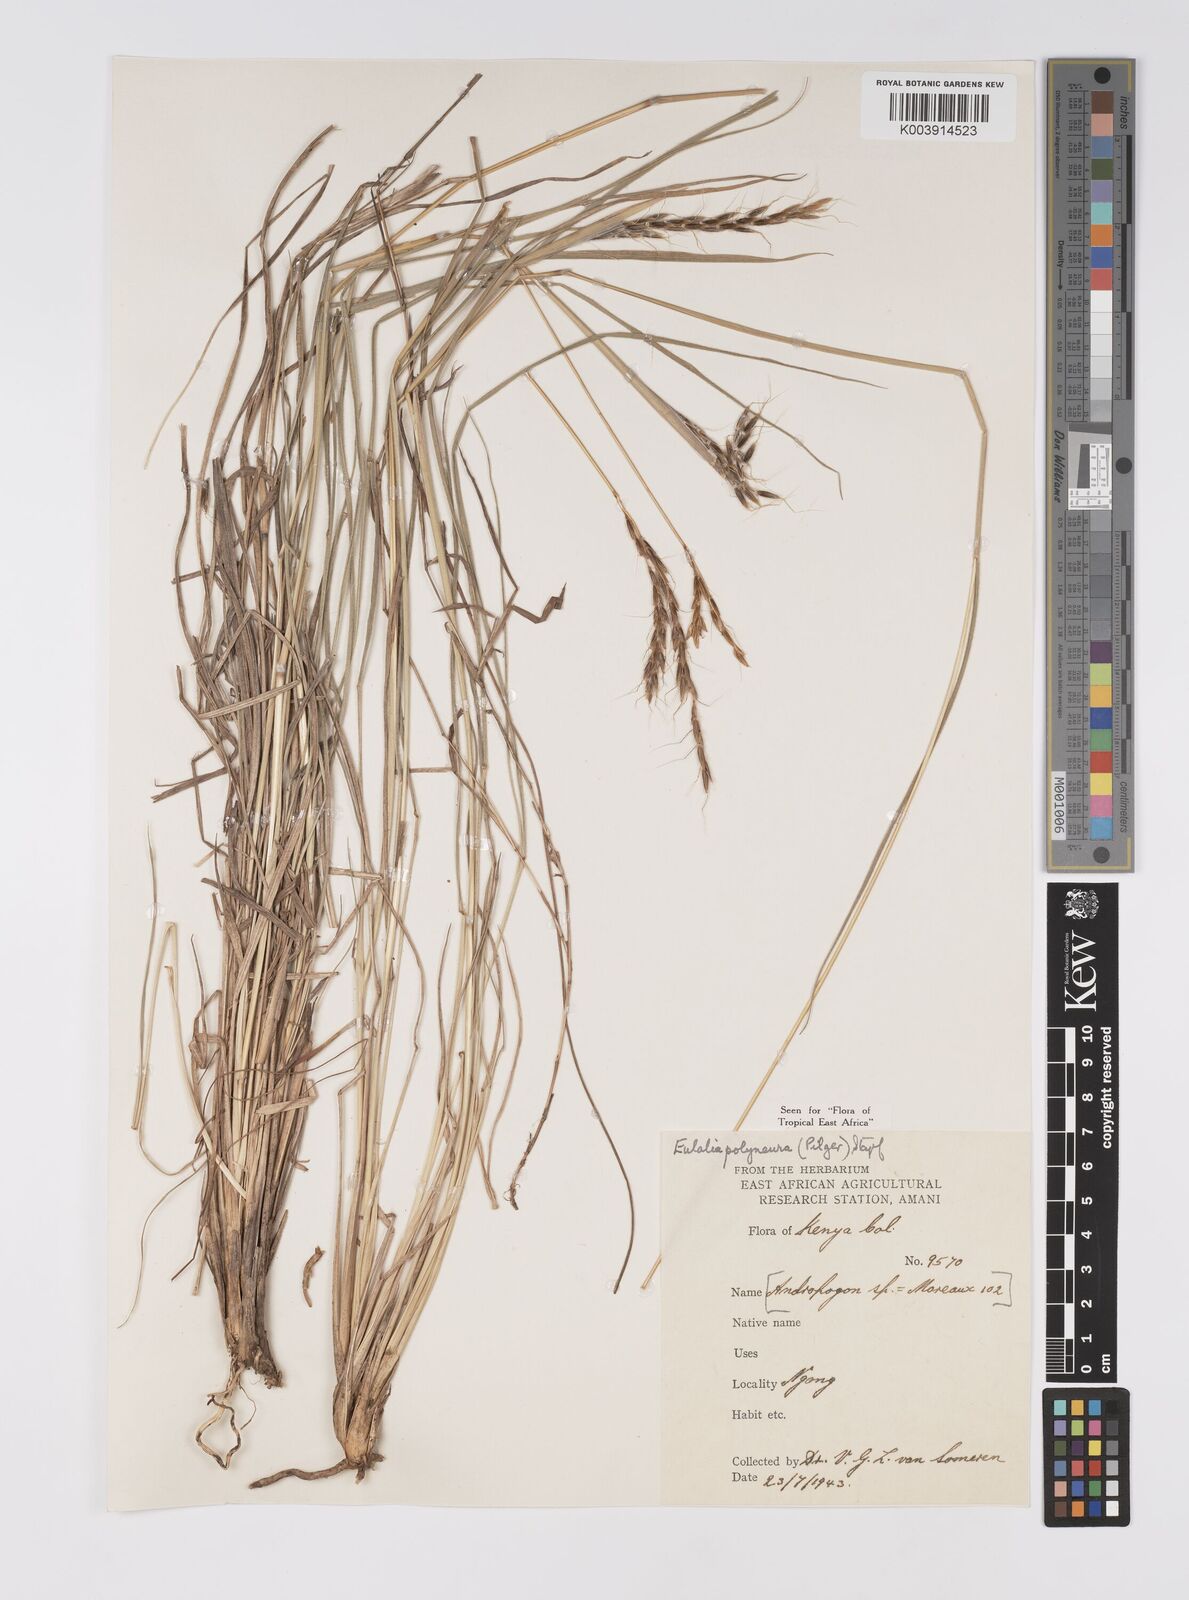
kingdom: Plantae
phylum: Tracheophyta
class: Liliopsida
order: Poales
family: Poaceae
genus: Eulalia
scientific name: Eulalia polyneura
